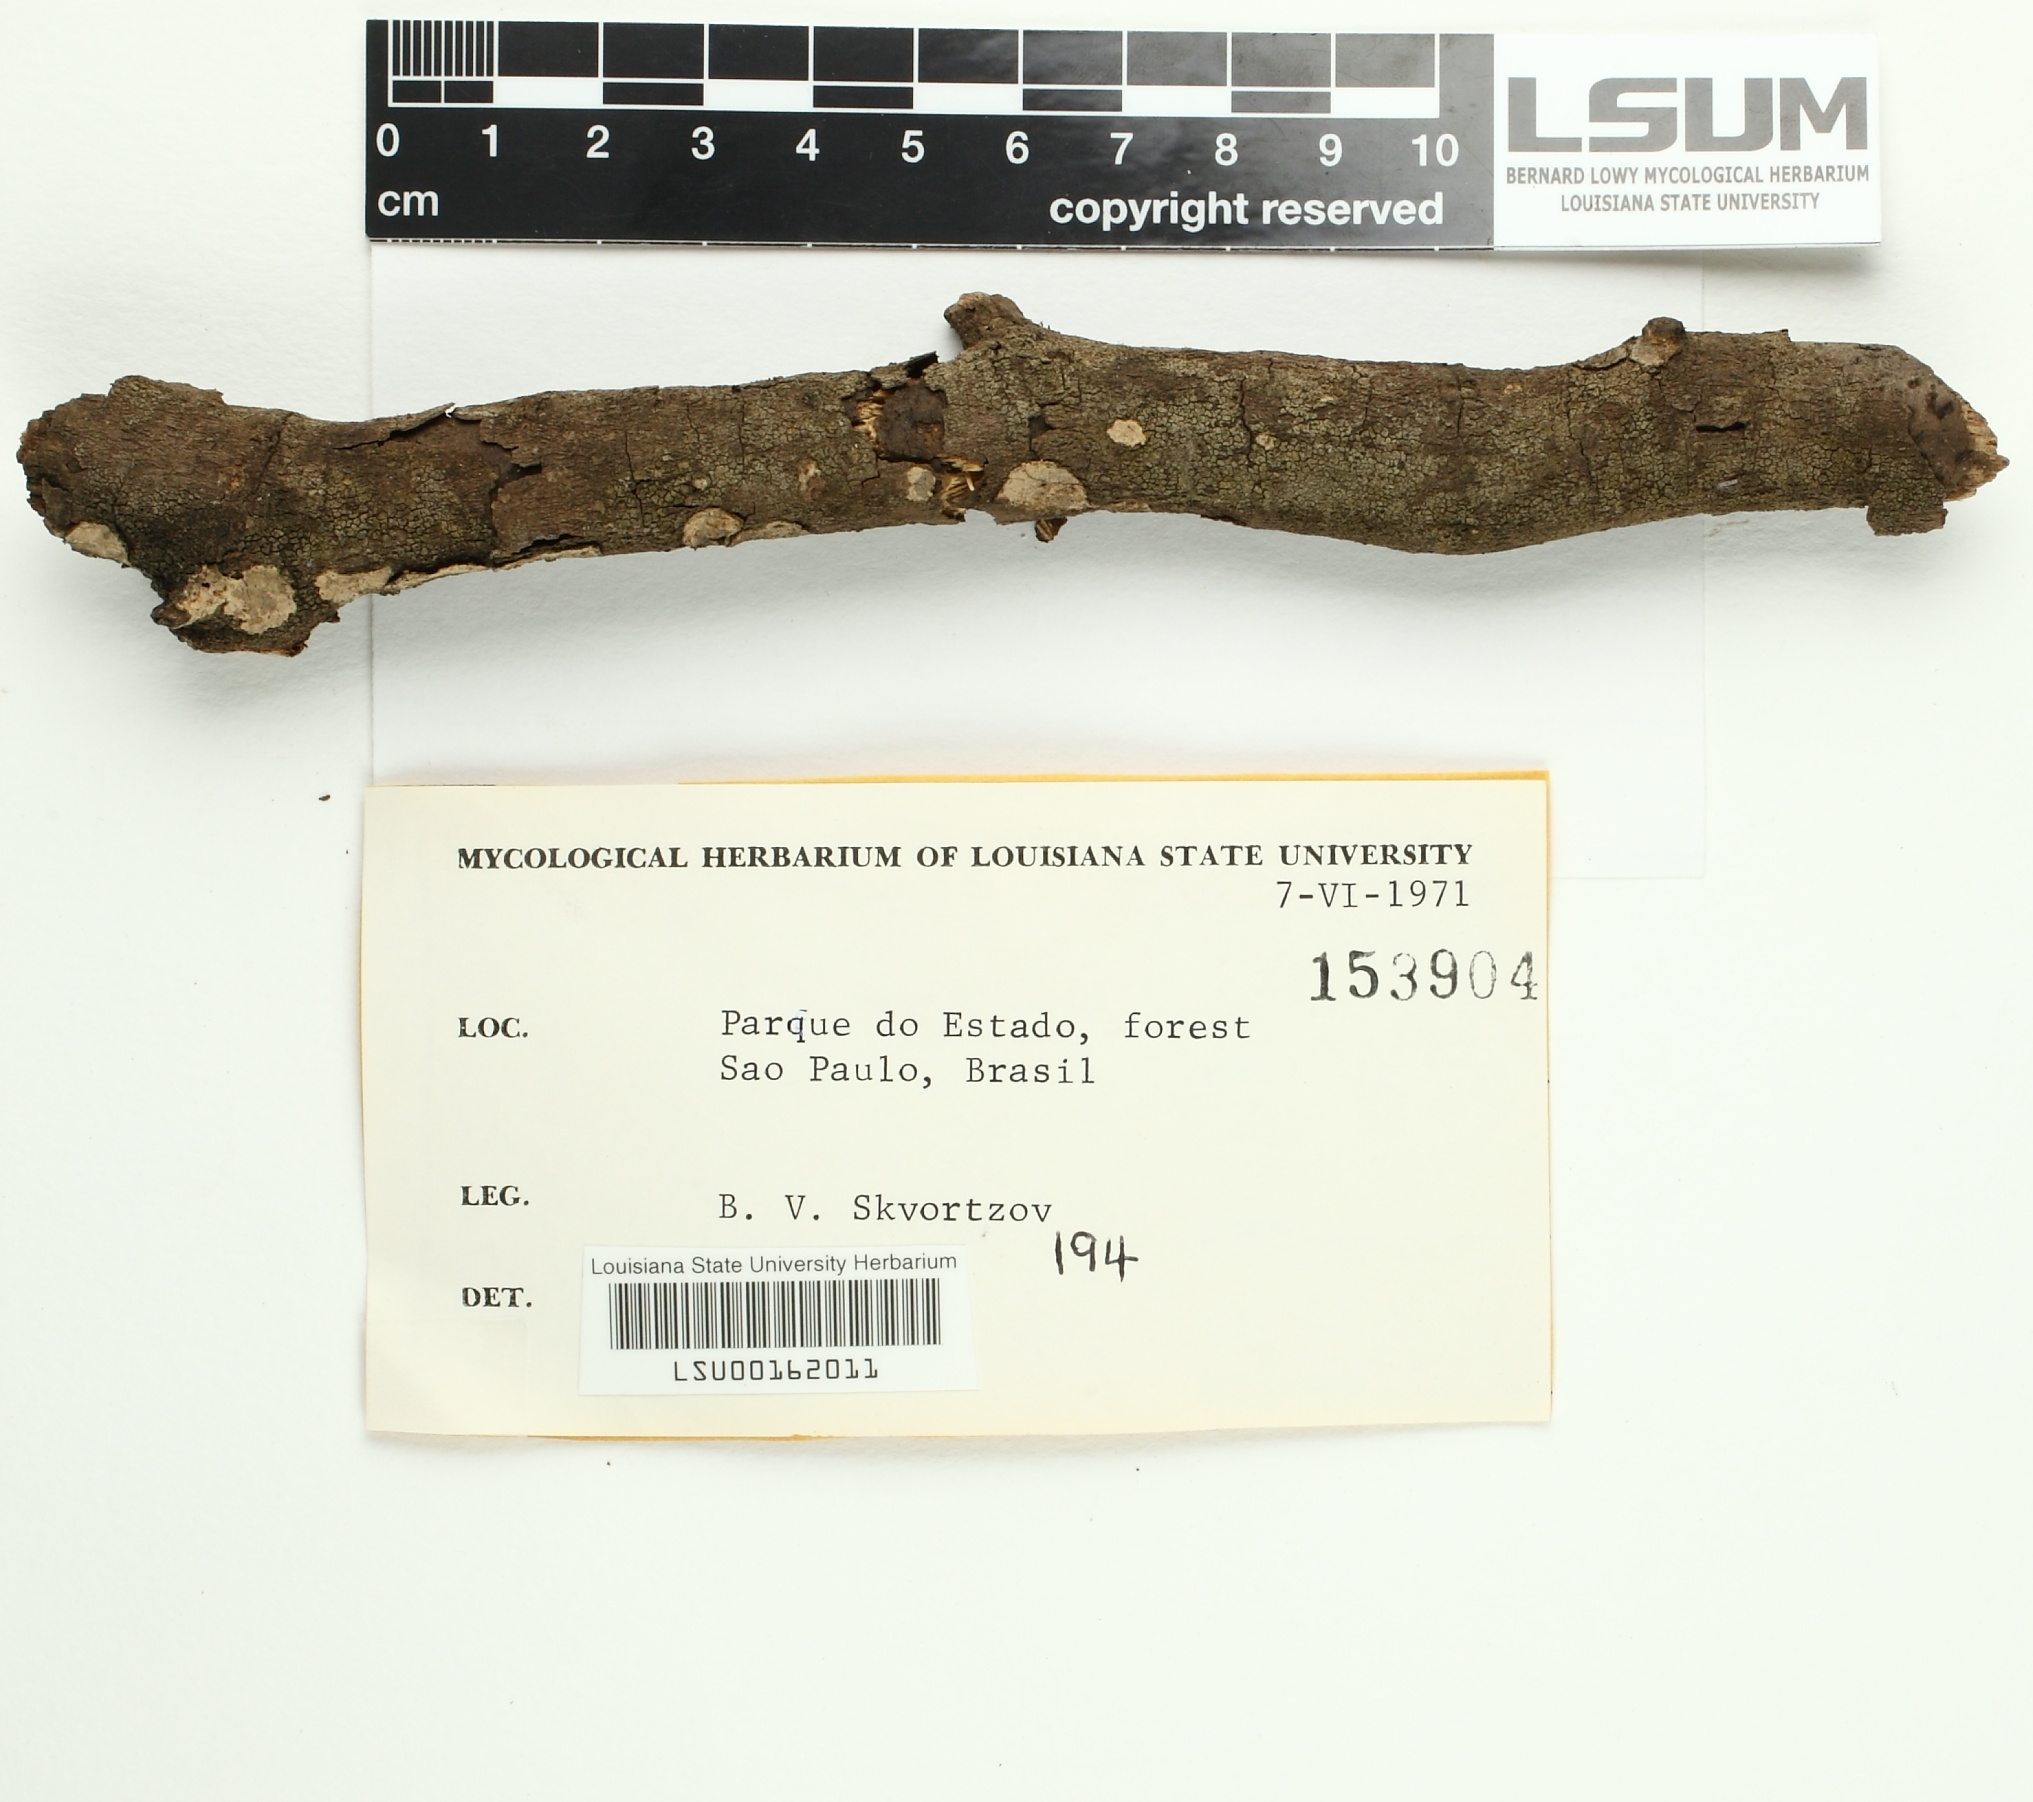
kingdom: Fungi
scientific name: Fungi
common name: Fungi
